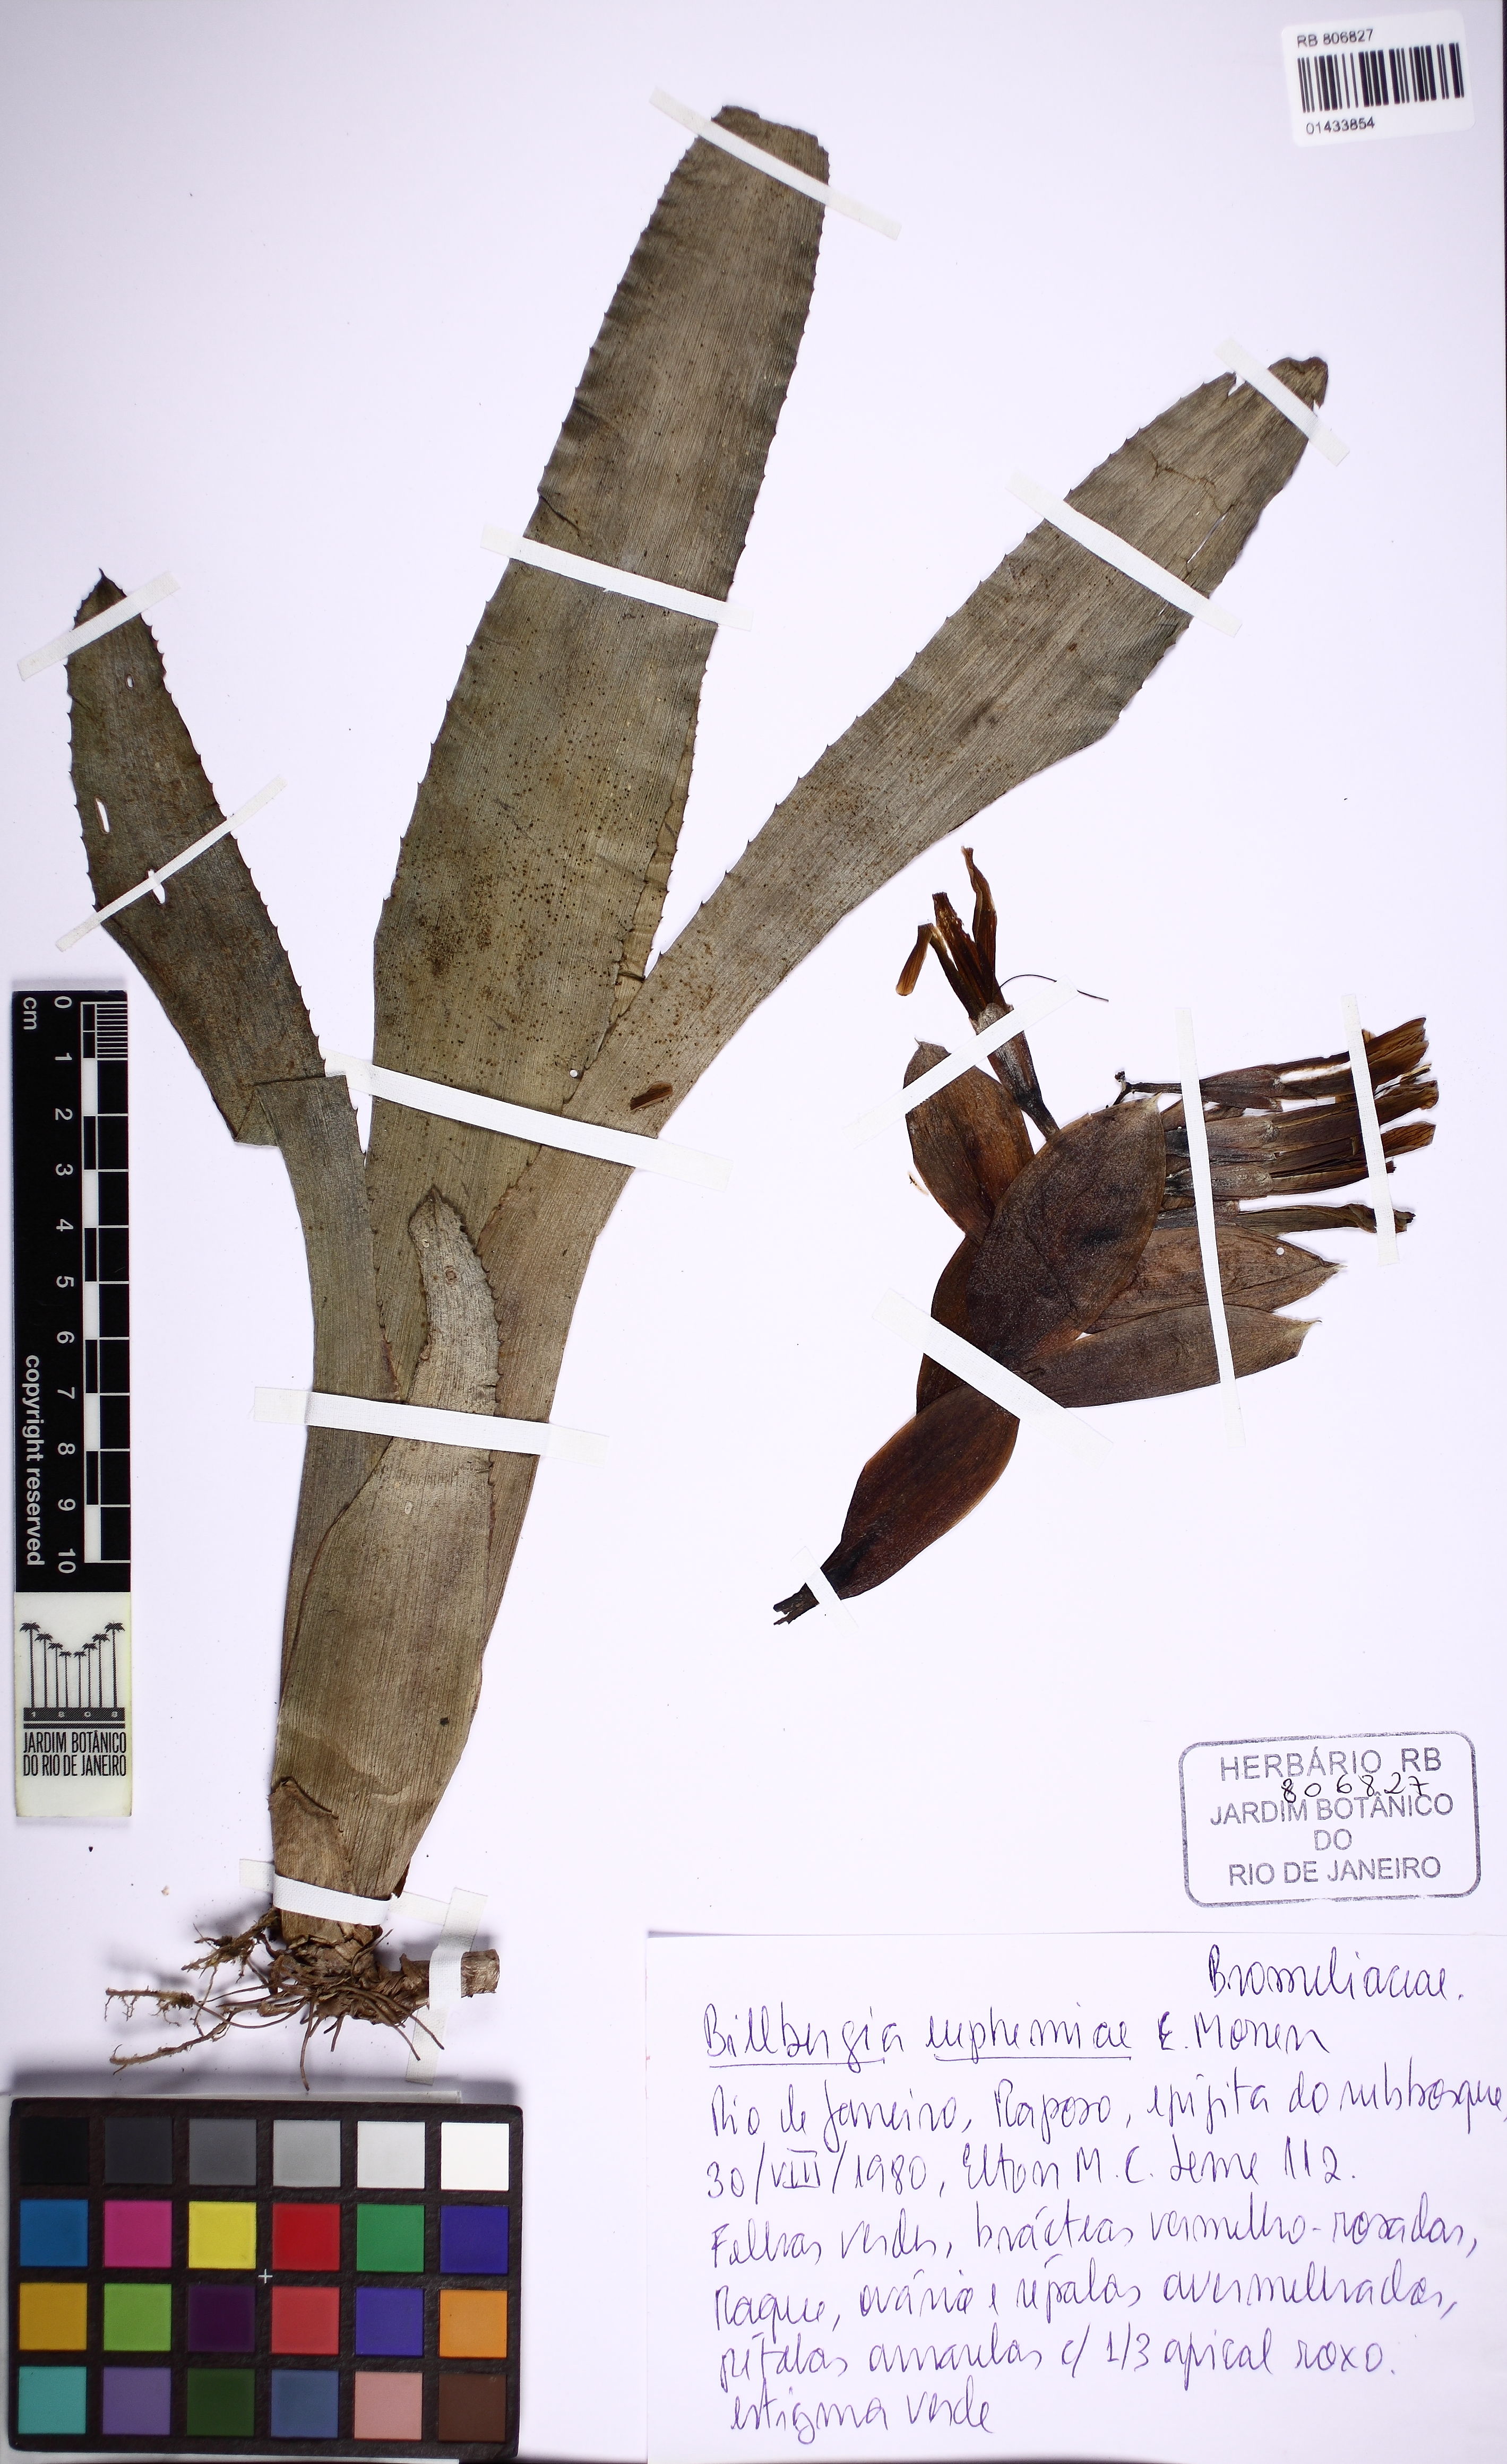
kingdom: Plantae
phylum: Tracheophyta
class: Liliopsida
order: Poales
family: Bromeliaceae
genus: Billbergia
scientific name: Billbergia euphemiae
